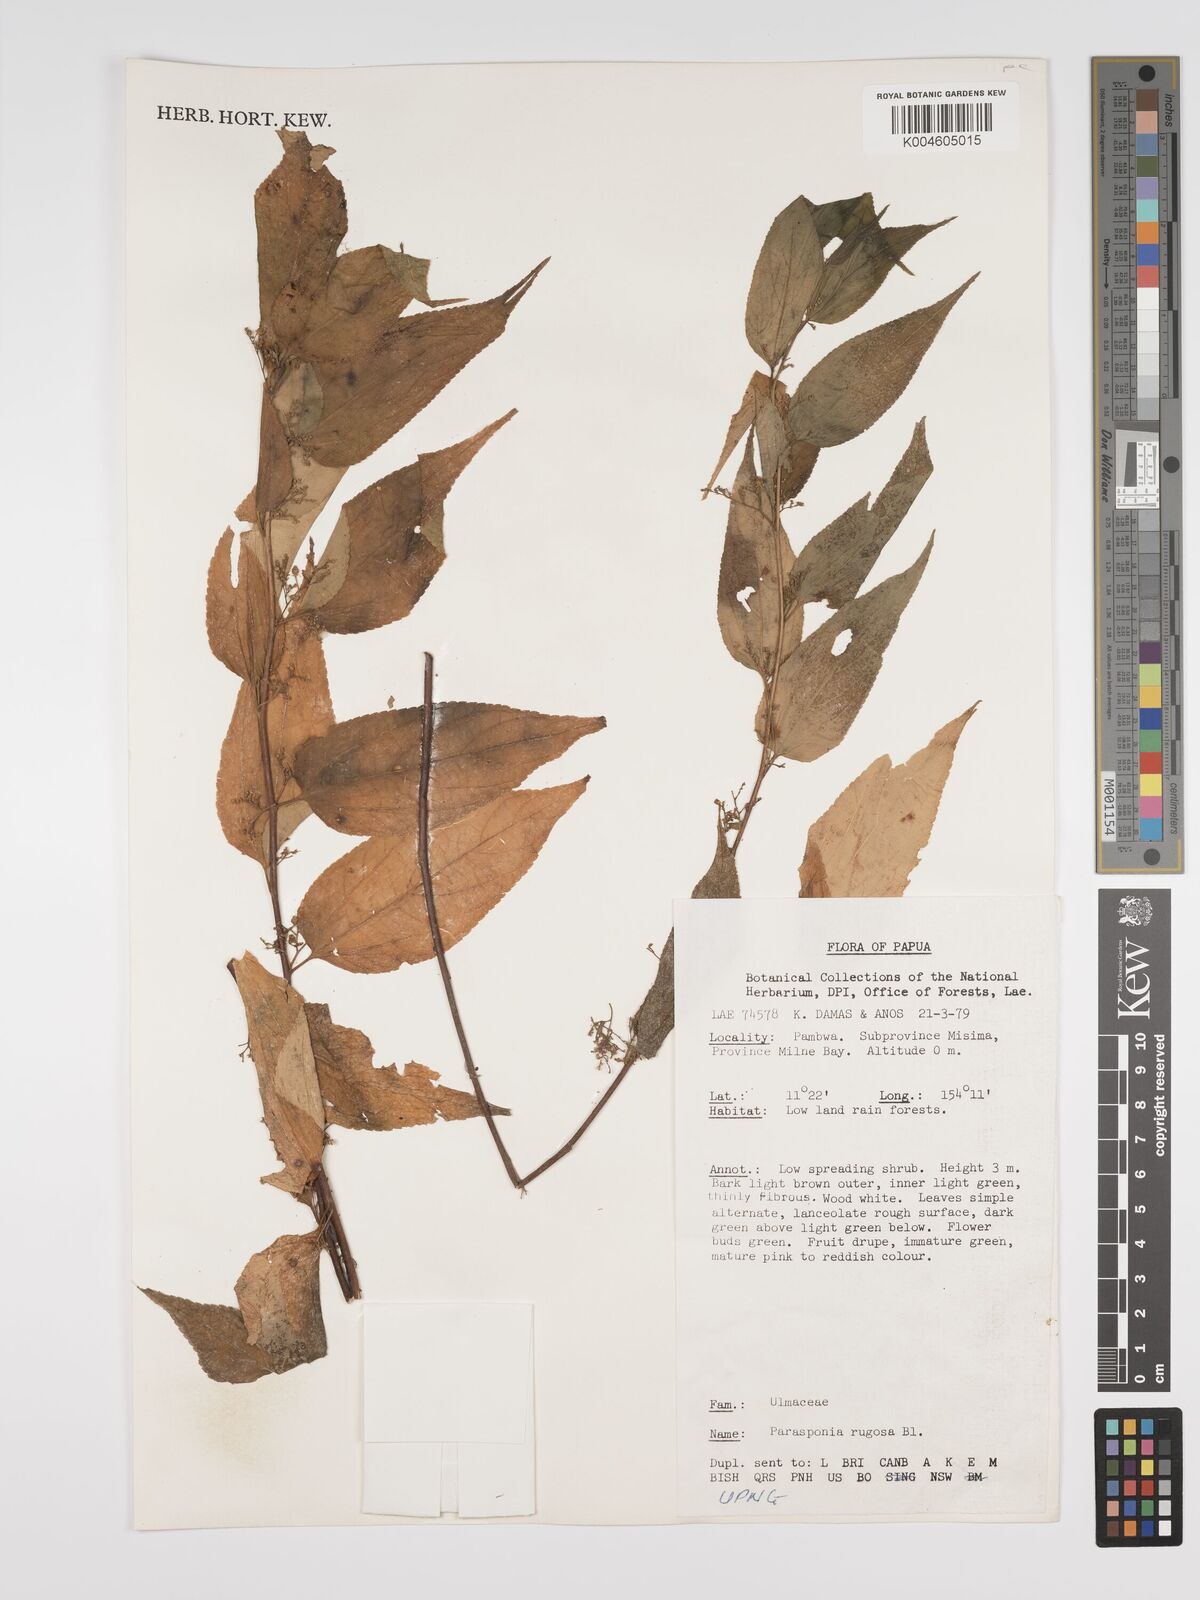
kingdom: Plantae
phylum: Tracheophyta
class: Magnoliopsida
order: Rosales
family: Cannabaceae
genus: Trema
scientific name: Trema eurhynchum
